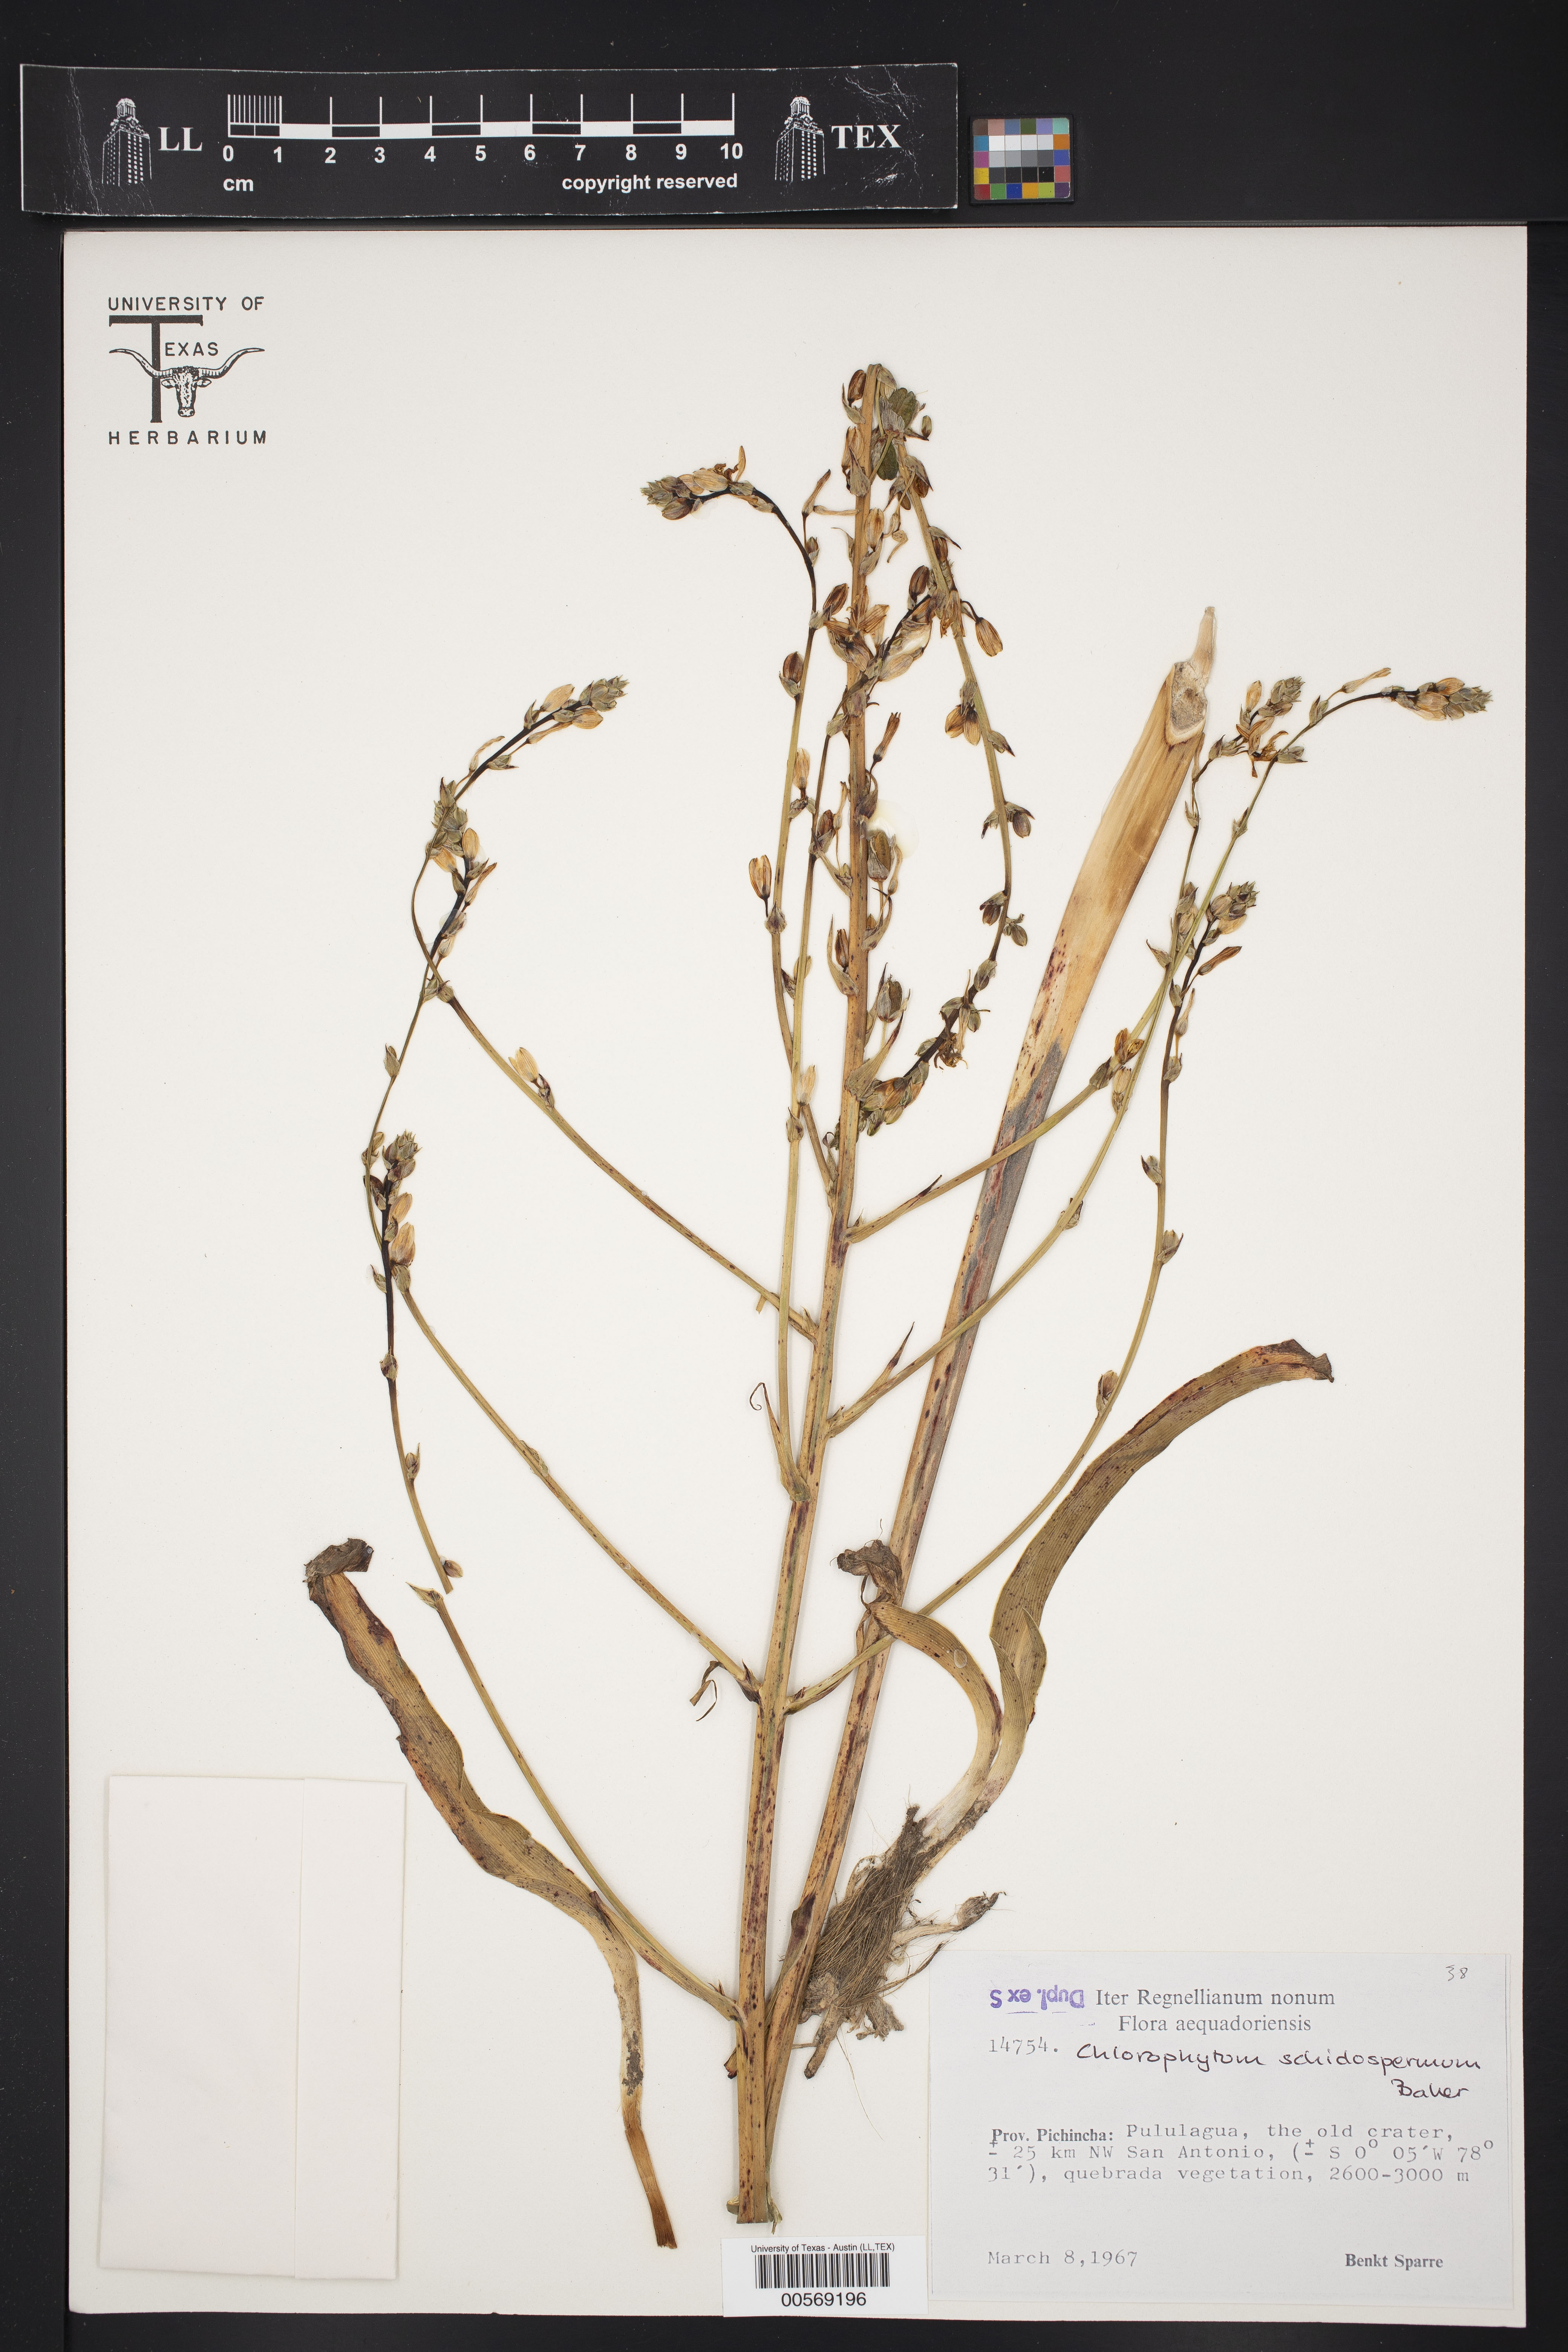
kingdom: Plantae
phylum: Tracheophyta
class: Liliopsida
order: Poales
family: Bromeliaceae
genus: Fosterella
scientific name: Fosterella schidosperma
